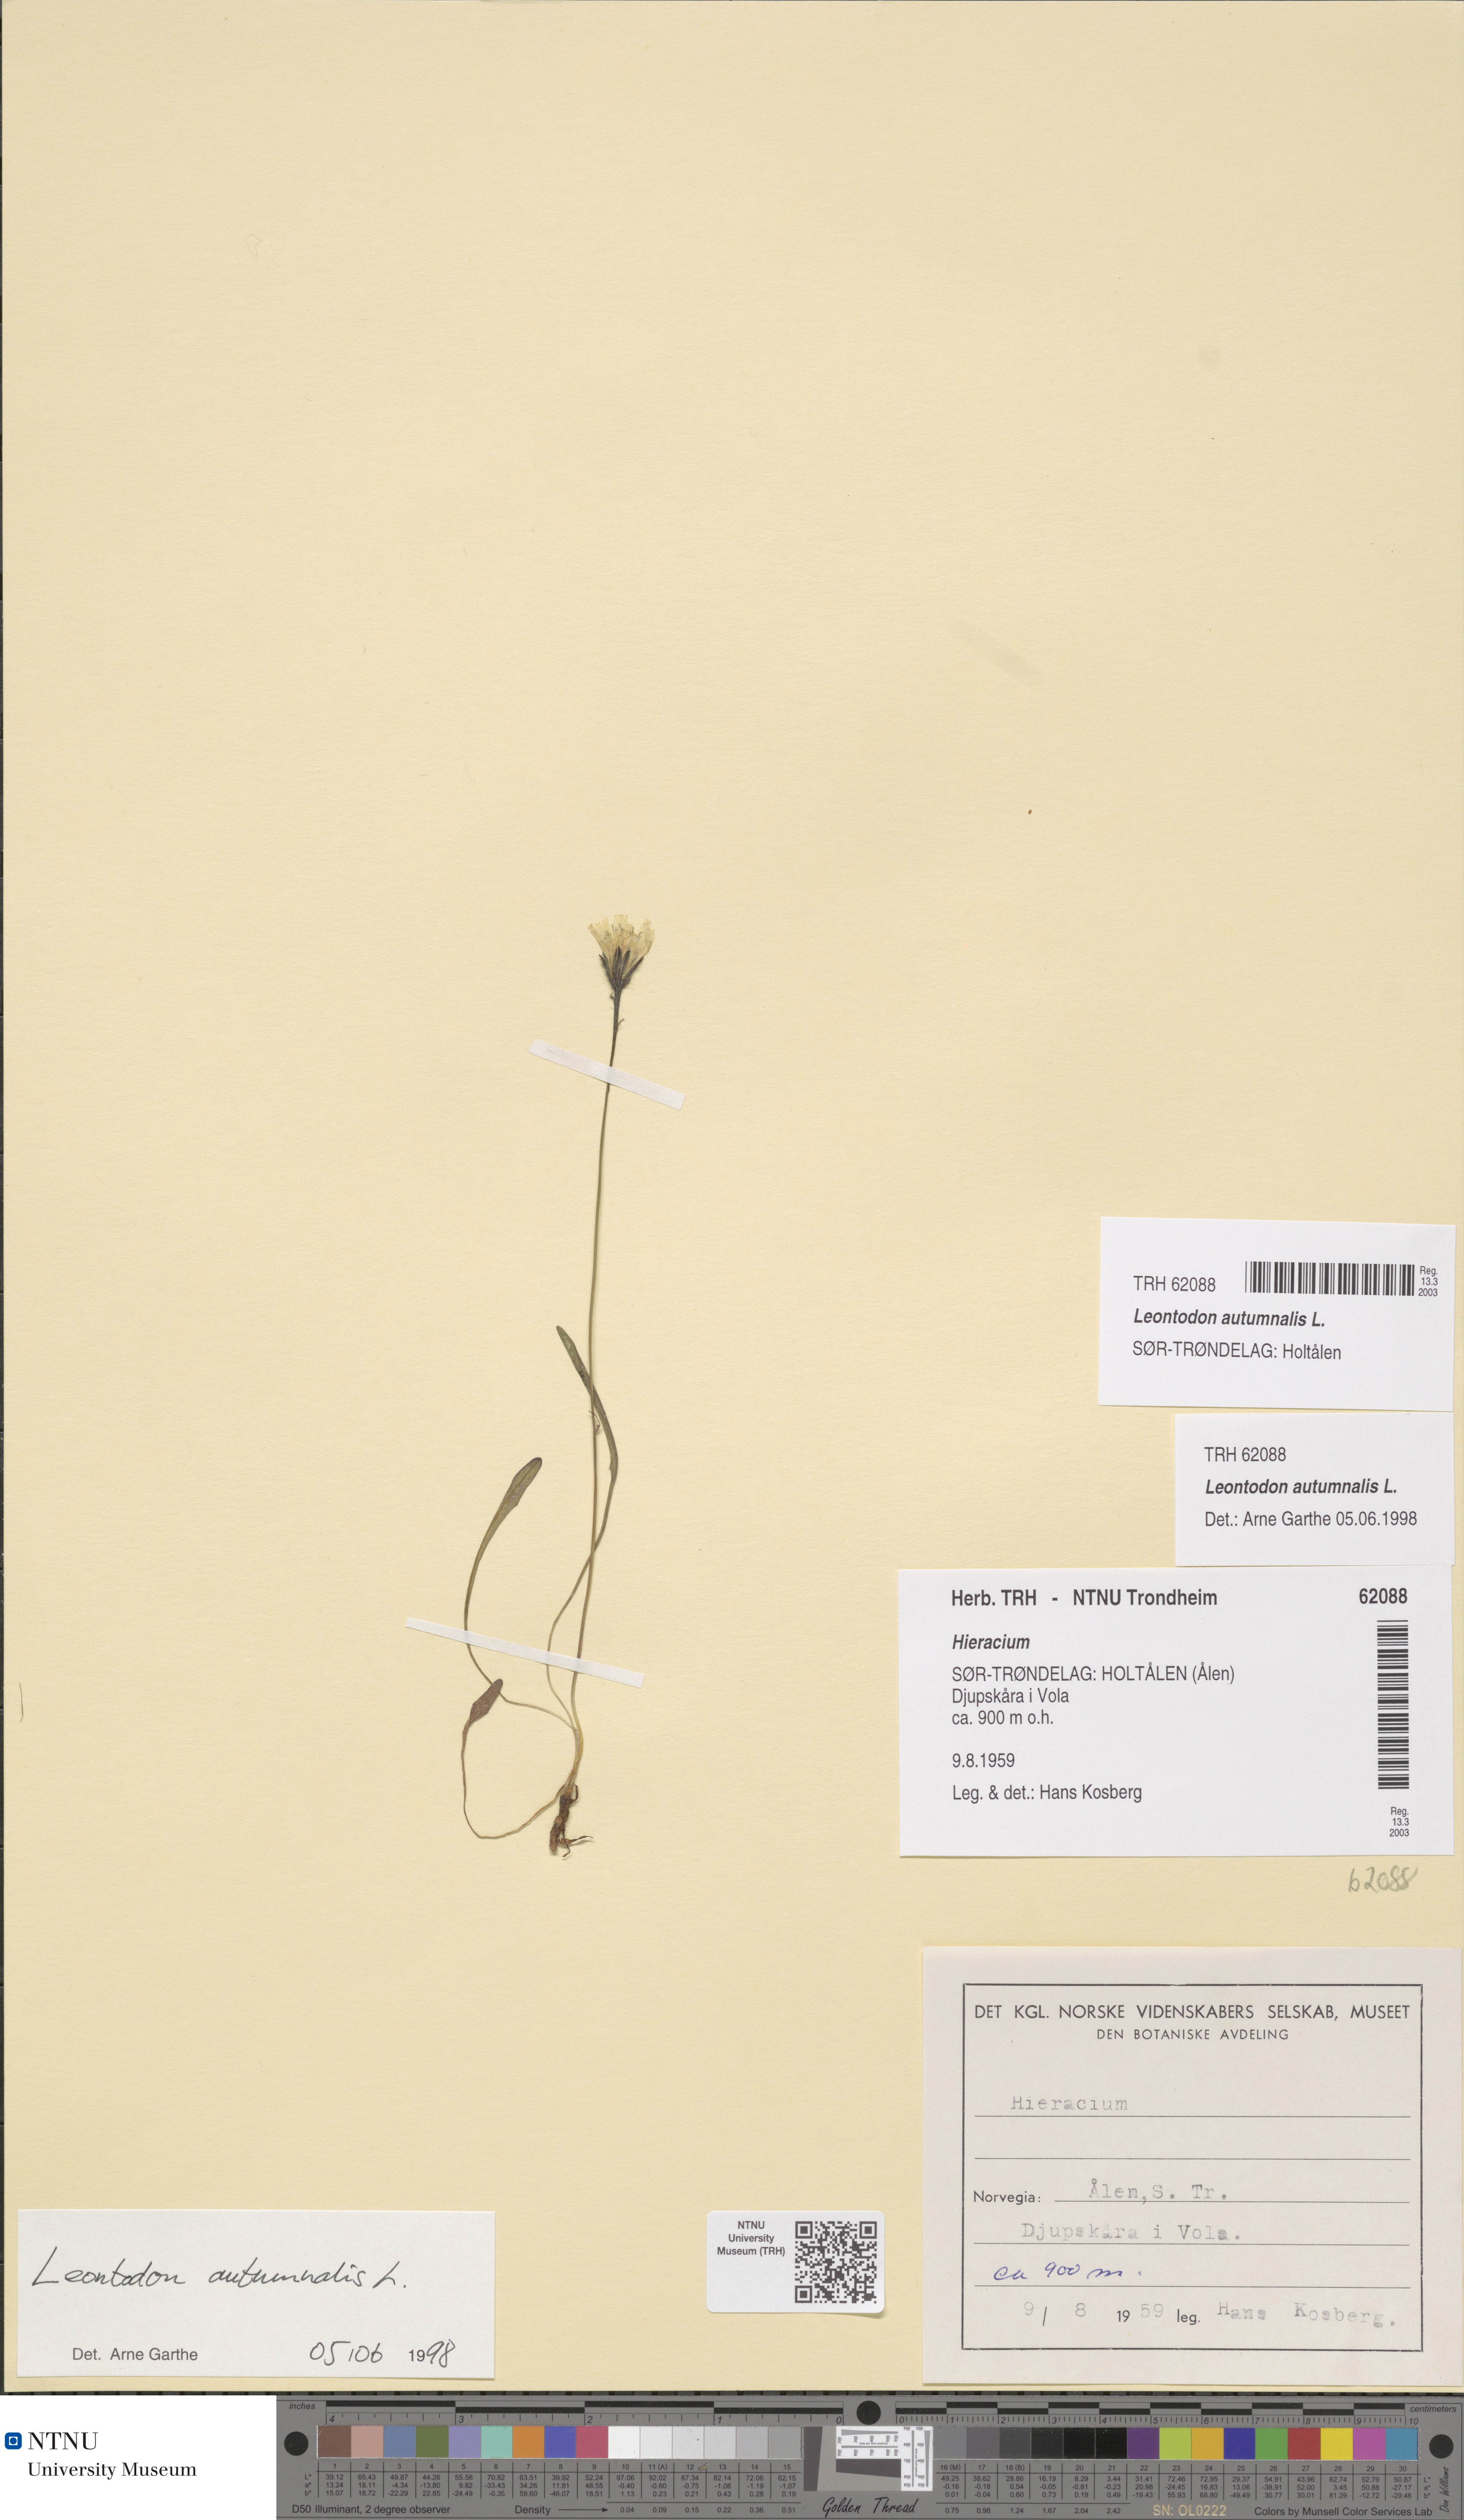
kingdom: Plantae
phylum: Tracheophyta
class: Magnoliopsida
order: Asterales
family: Asteraceae
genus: Scorzoneroides
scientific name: Scorzoneroides autumnalis
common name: Autumn hawkbit
